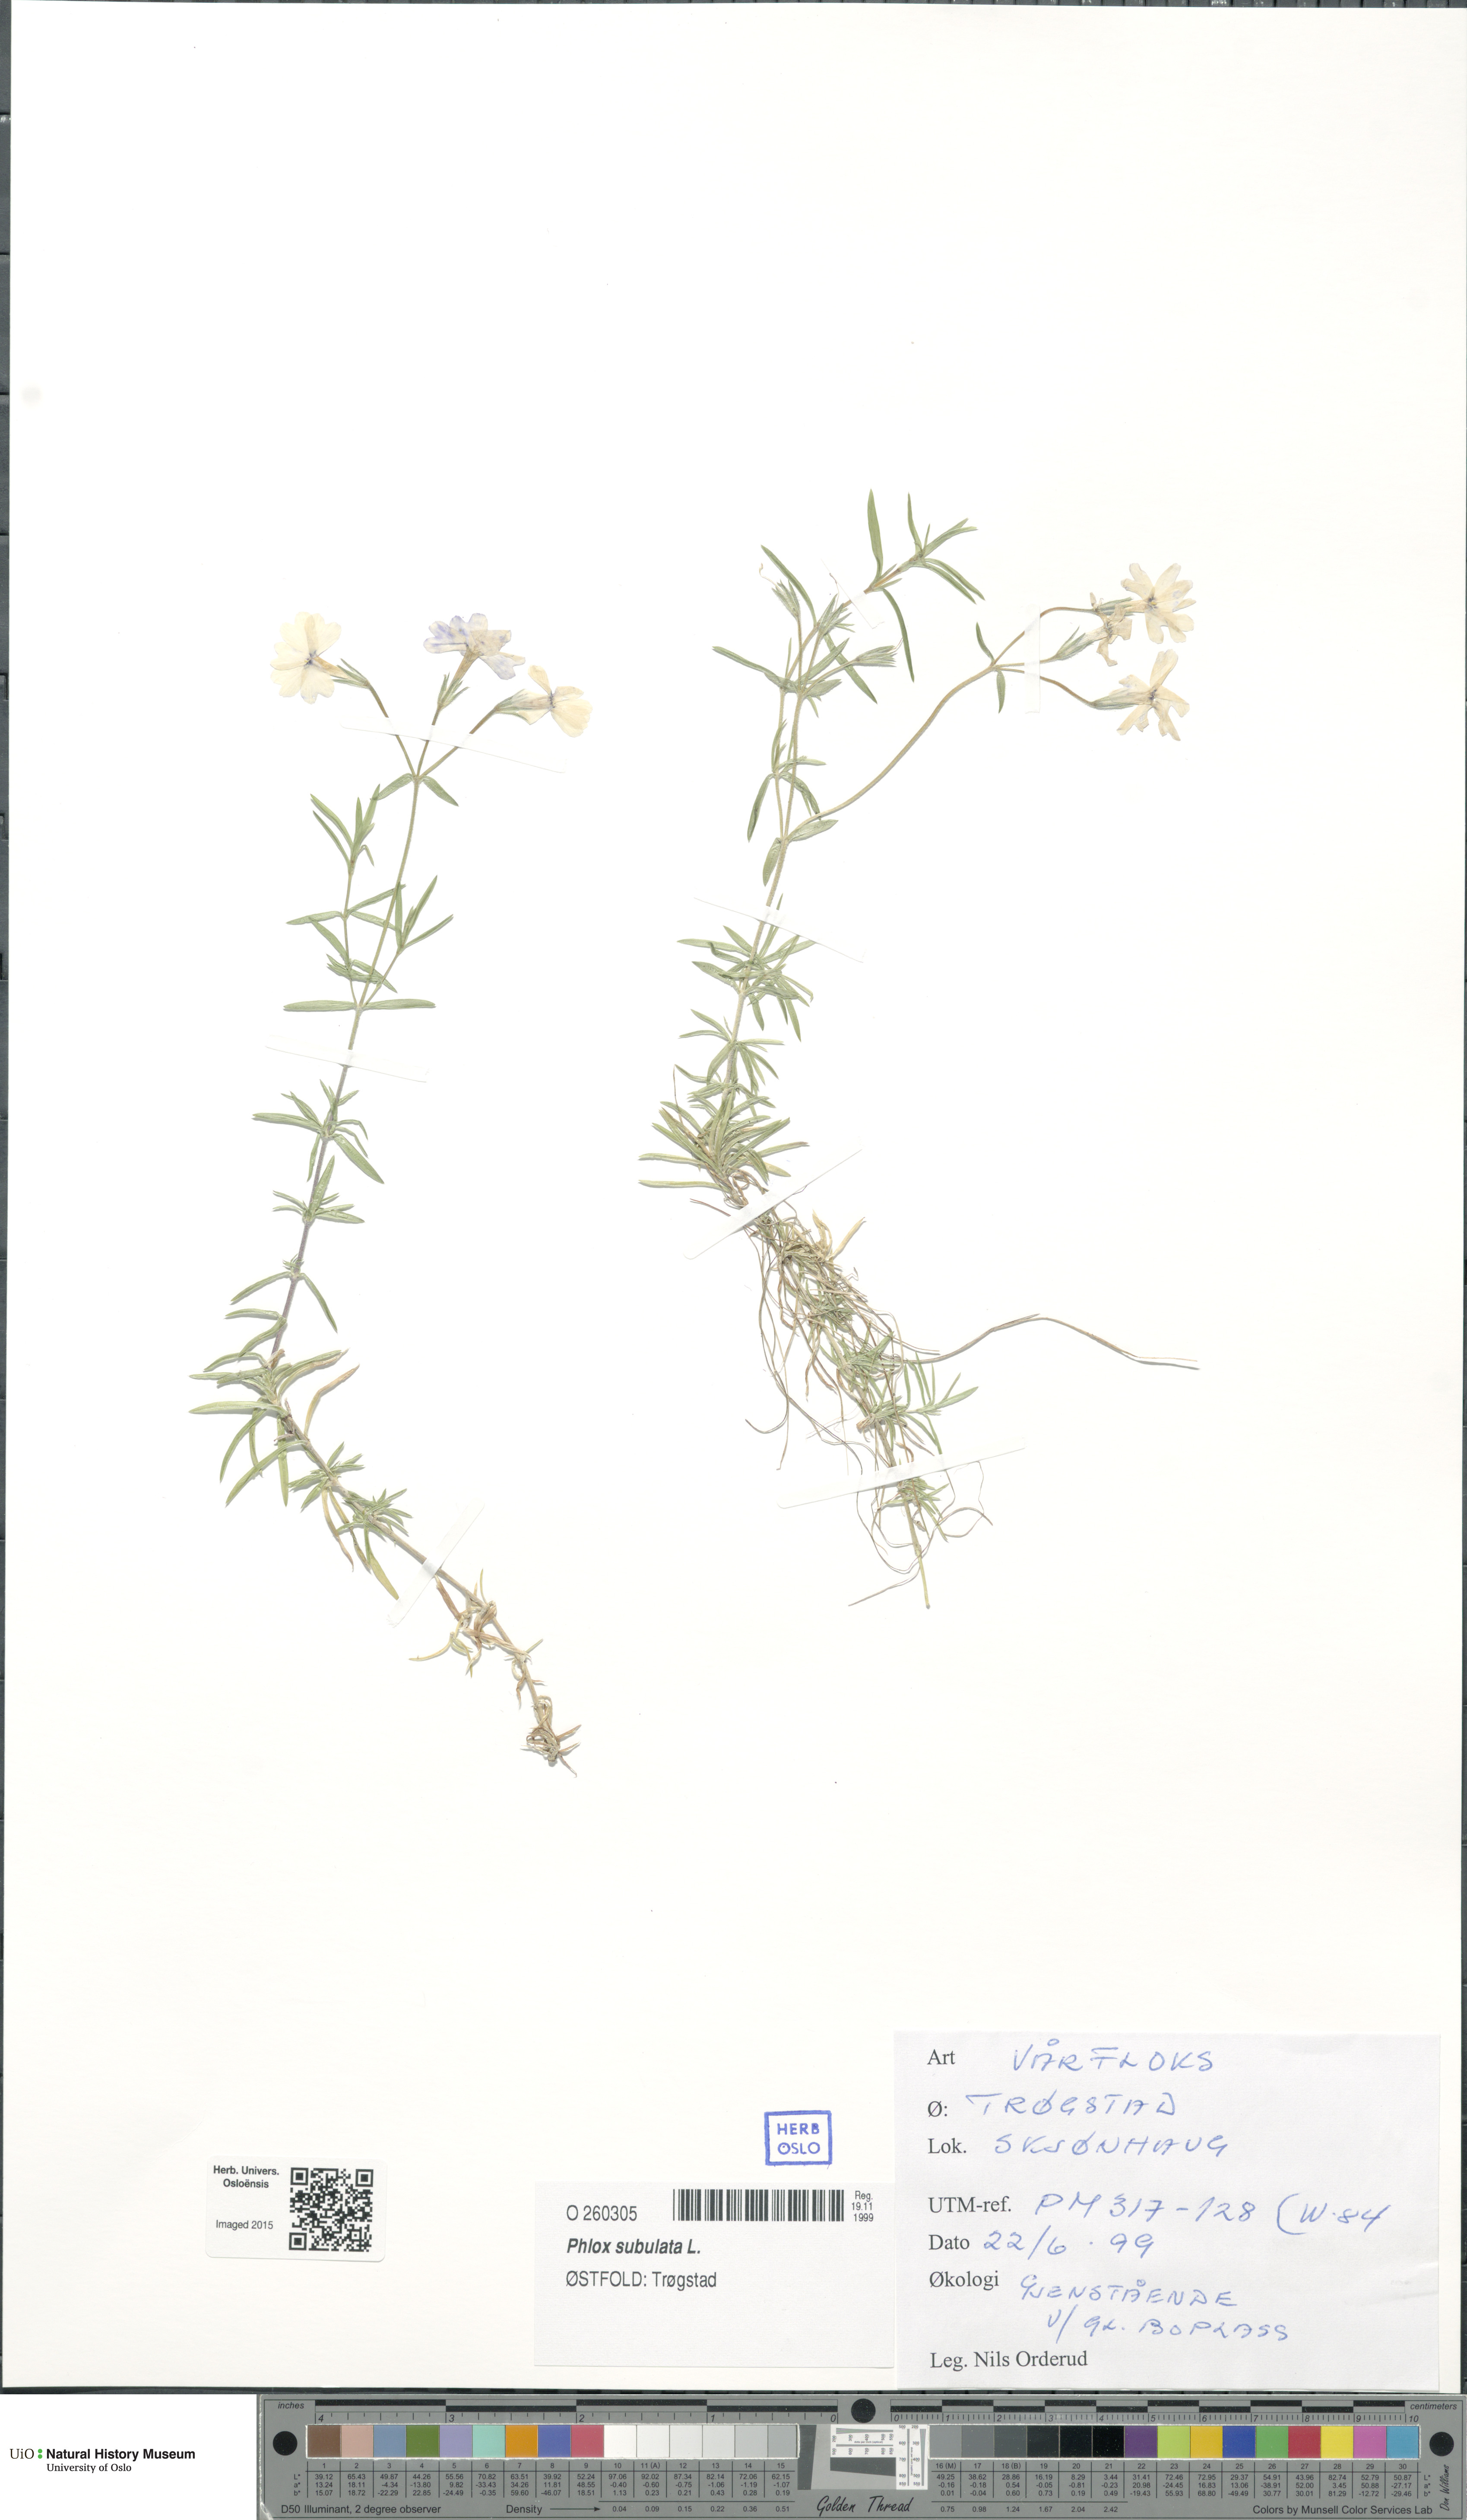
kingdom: Plantae
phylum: Tracheophyta
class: Magnoliopsida
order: Ericales
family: Polemoniaceae
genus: Phlox
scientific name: Phlox subulata
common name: Moss phlox
